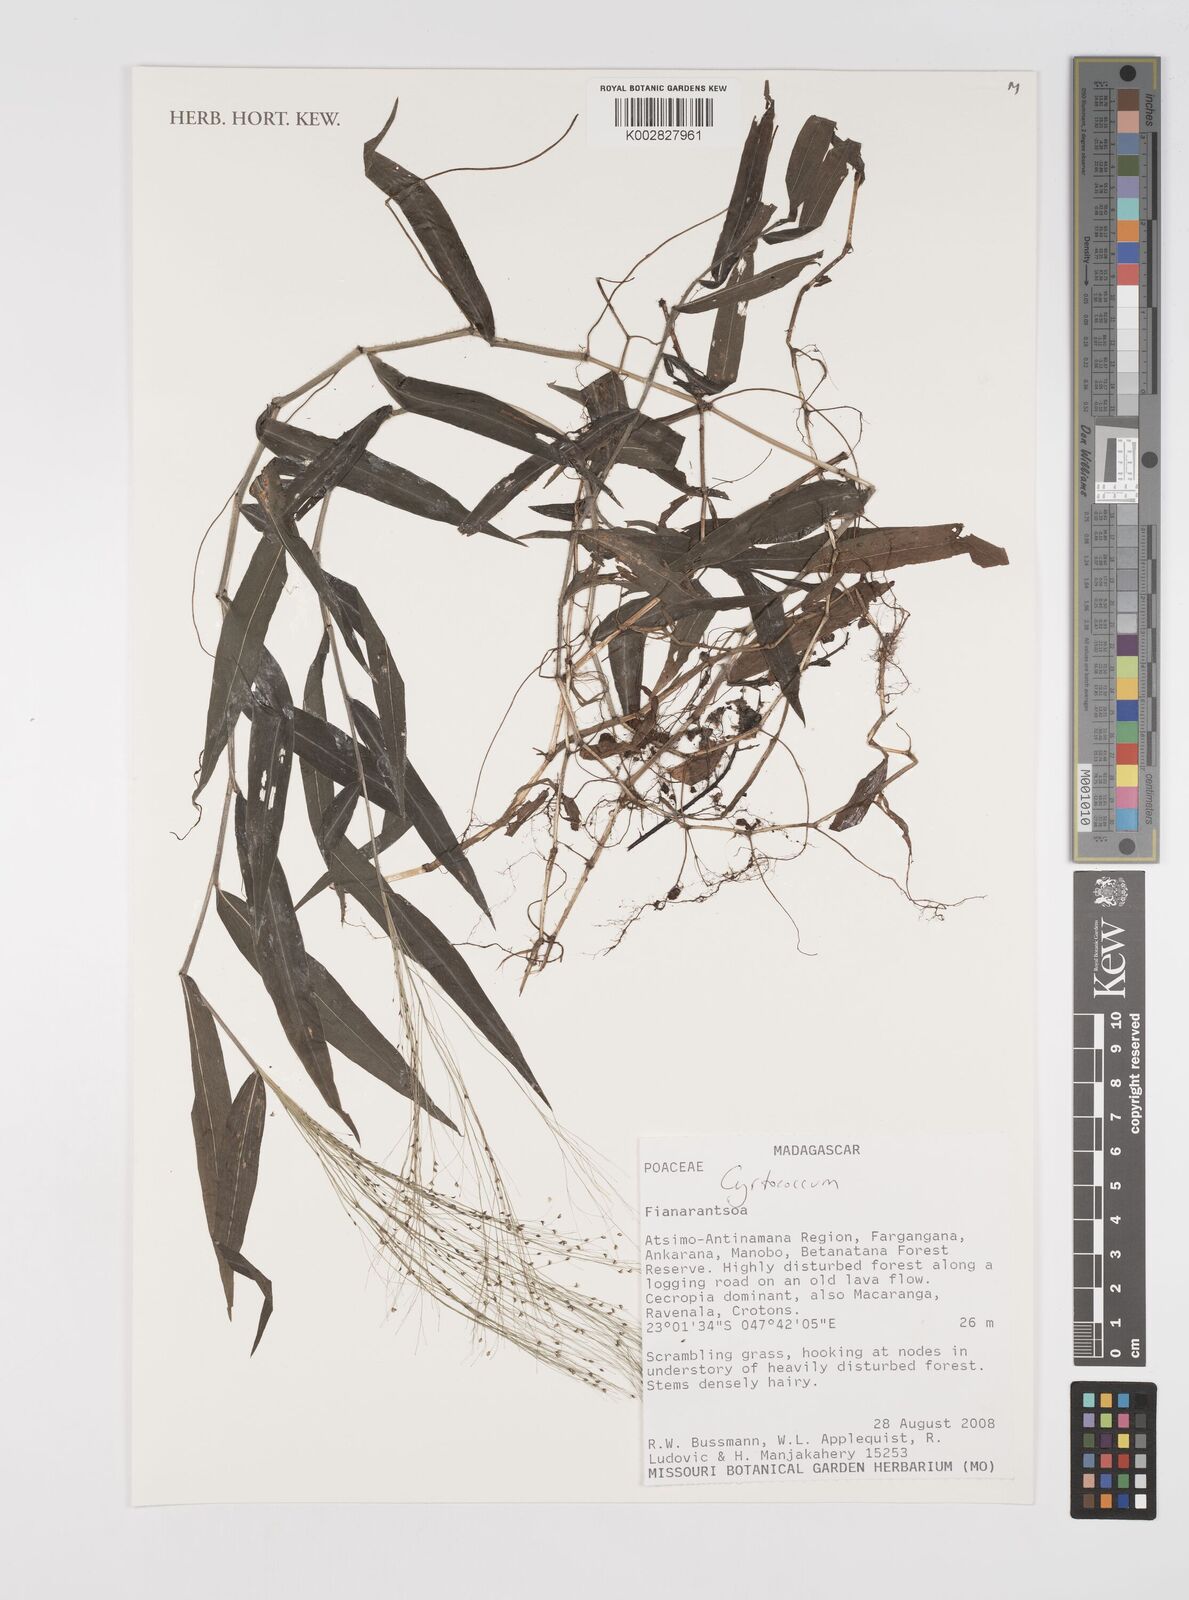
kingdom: Plantae
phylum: Tracheophyta
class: Liliopsida
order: Poales
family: Poaceae
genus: Cyrtococcum
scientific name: Cyrtococcum
